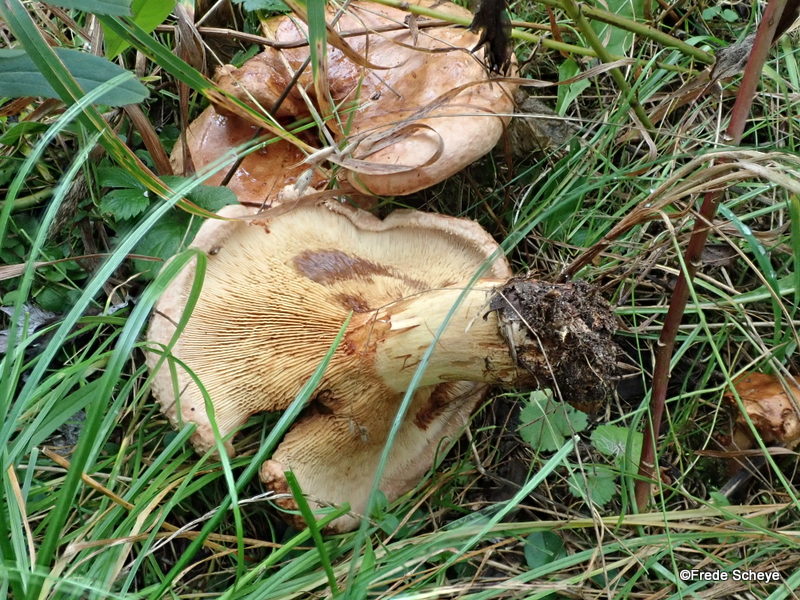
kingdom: Fungi
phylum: Basidiomycota
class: Agaricomycetes
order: Boletales
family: Paxillaceae
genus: Paxillus
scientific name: Paxillus involutus
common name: almindelig netbladhat
